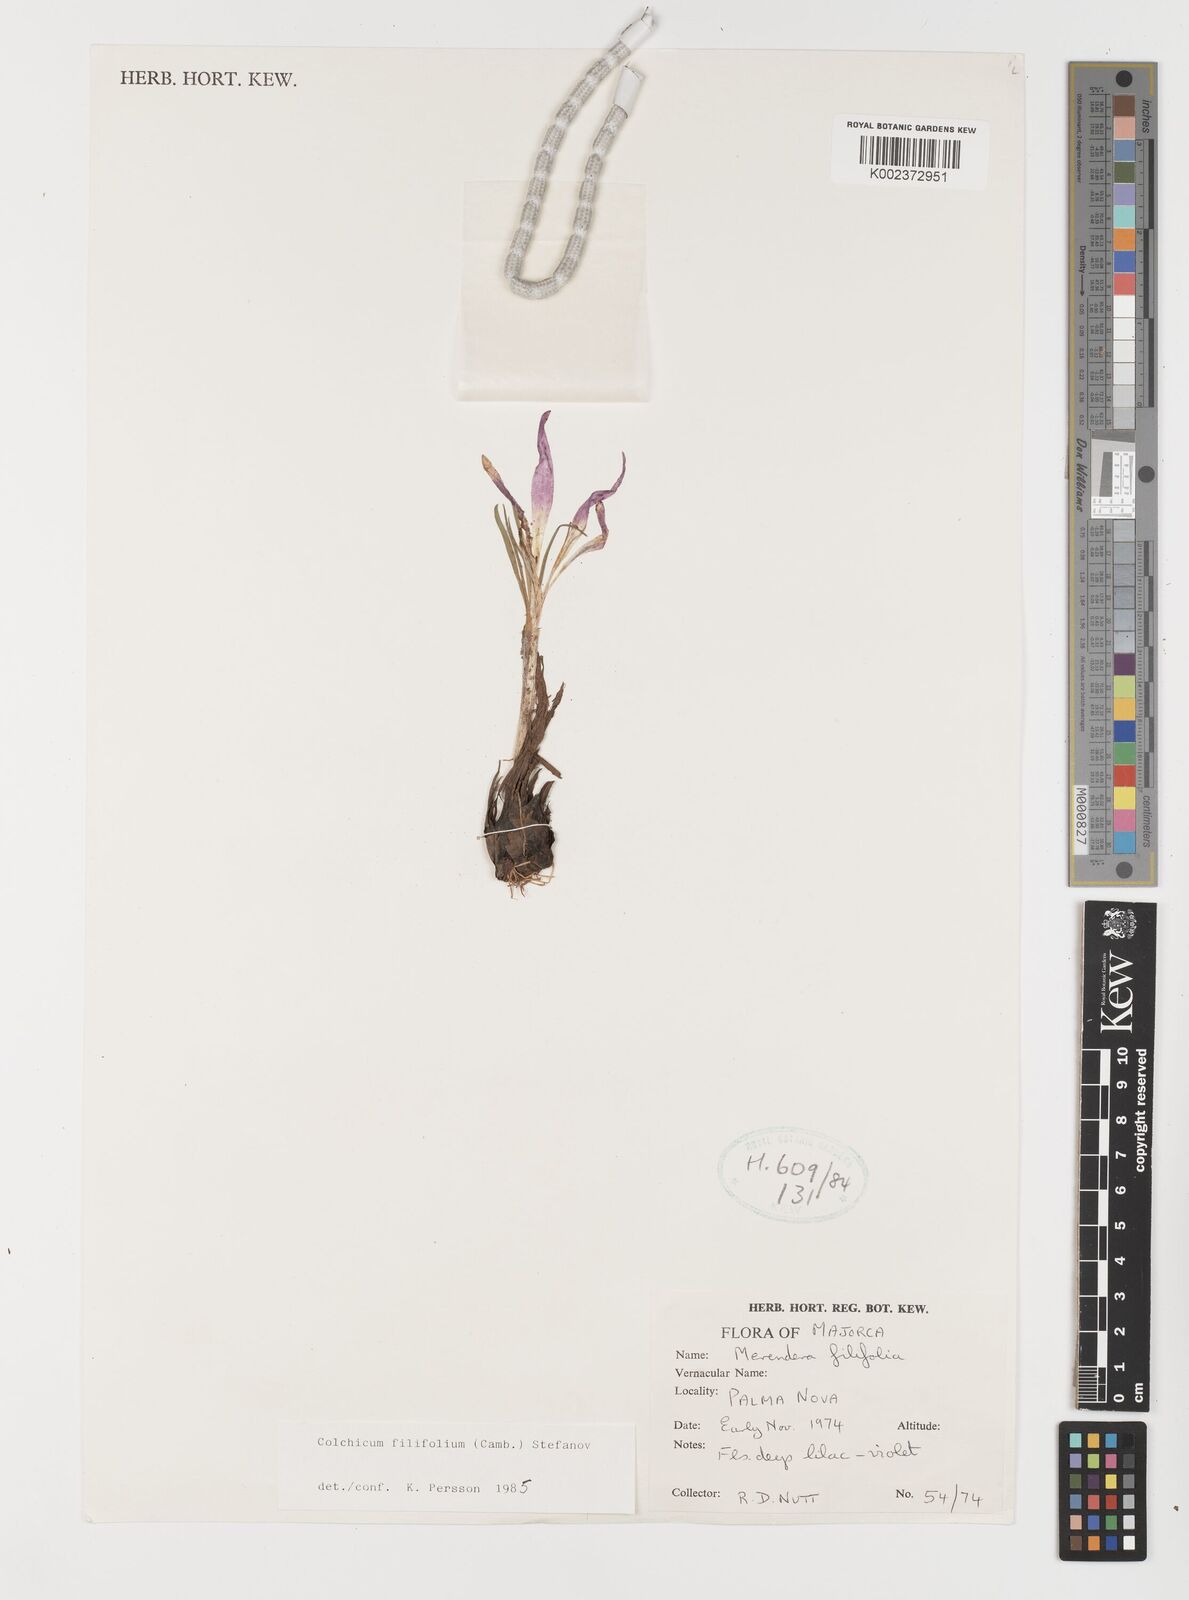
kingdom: Plantae
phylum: Tracheophyta
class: Liliopsida
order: Liliales
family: Colchicaceae
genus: Colchicum
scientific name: Colchicum filifolium
